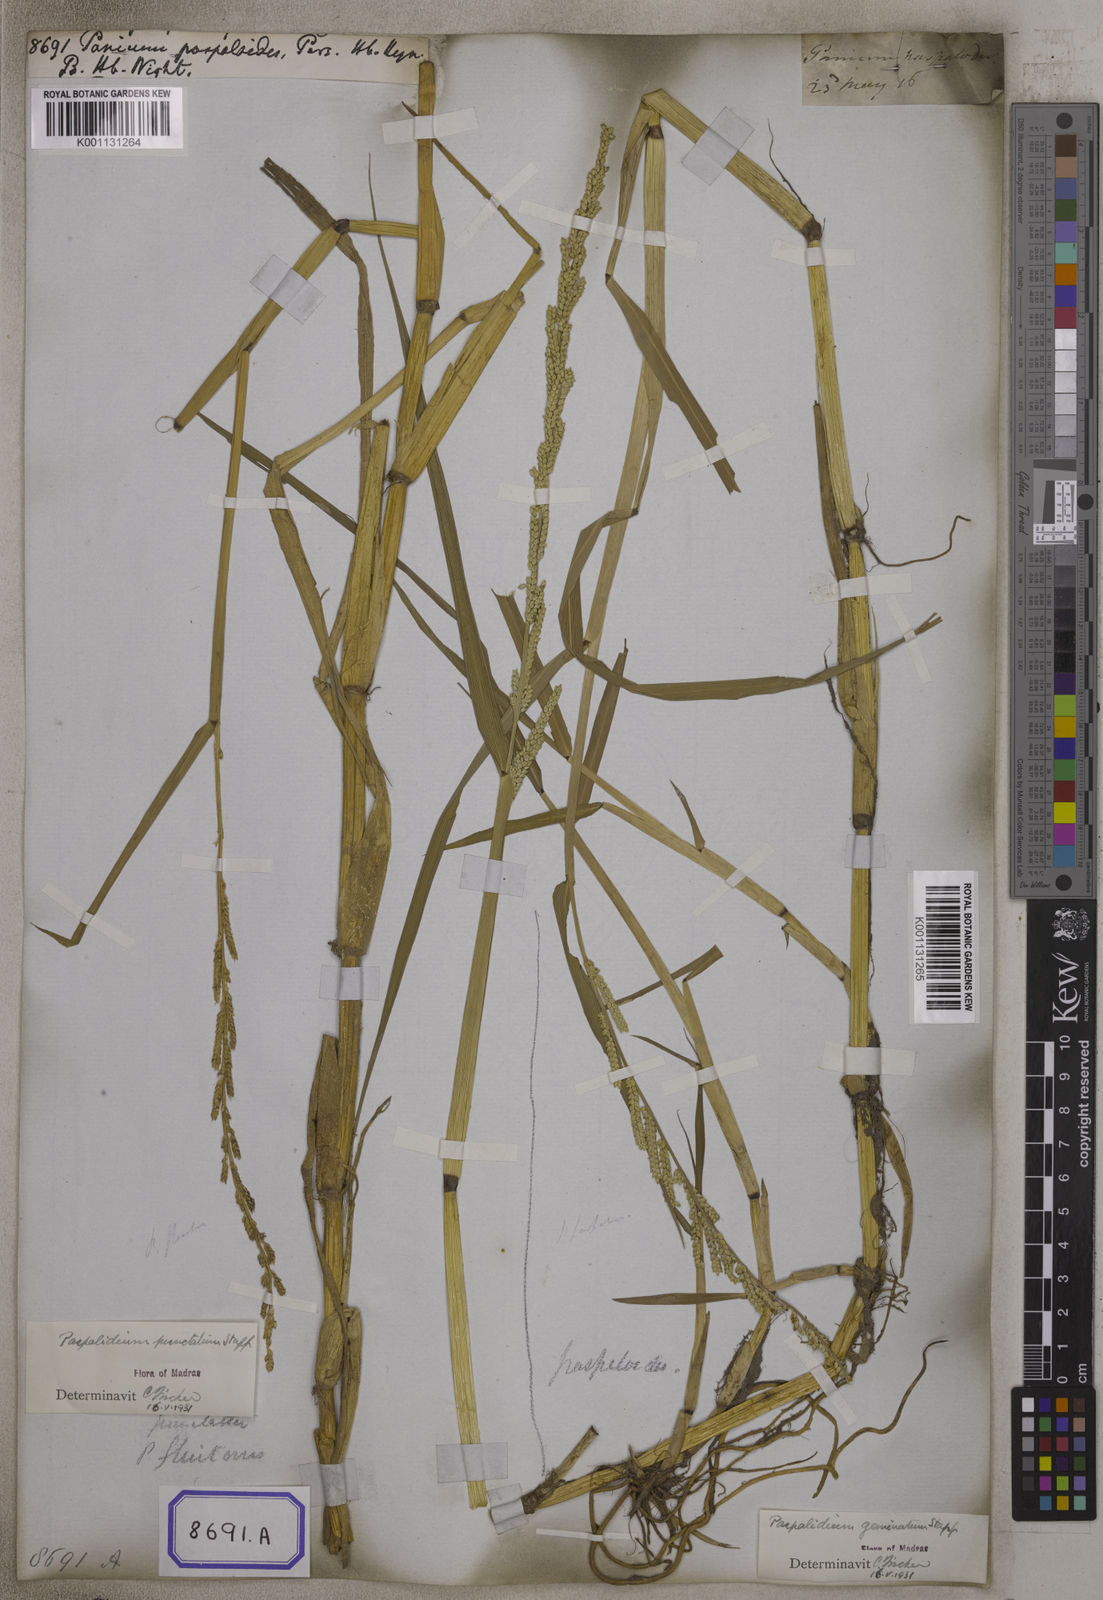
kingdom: Plantae
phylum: Tracheophyta
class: Liliopsida
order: Poales
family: Poaceae
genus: Setaria
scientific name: Setaria geminata
